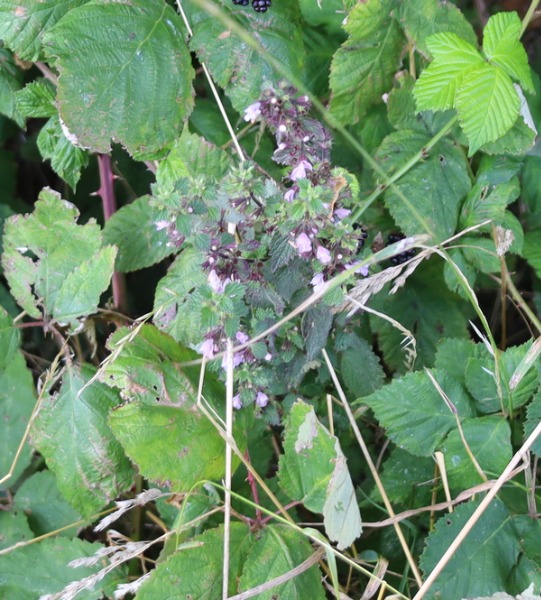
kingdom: Plantae
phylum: Tracheophyta
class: Magnoliopsida
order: Lamiales
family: Lamiaceae
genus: Ballota
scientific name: Ballota nigra
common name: Tandbæger
